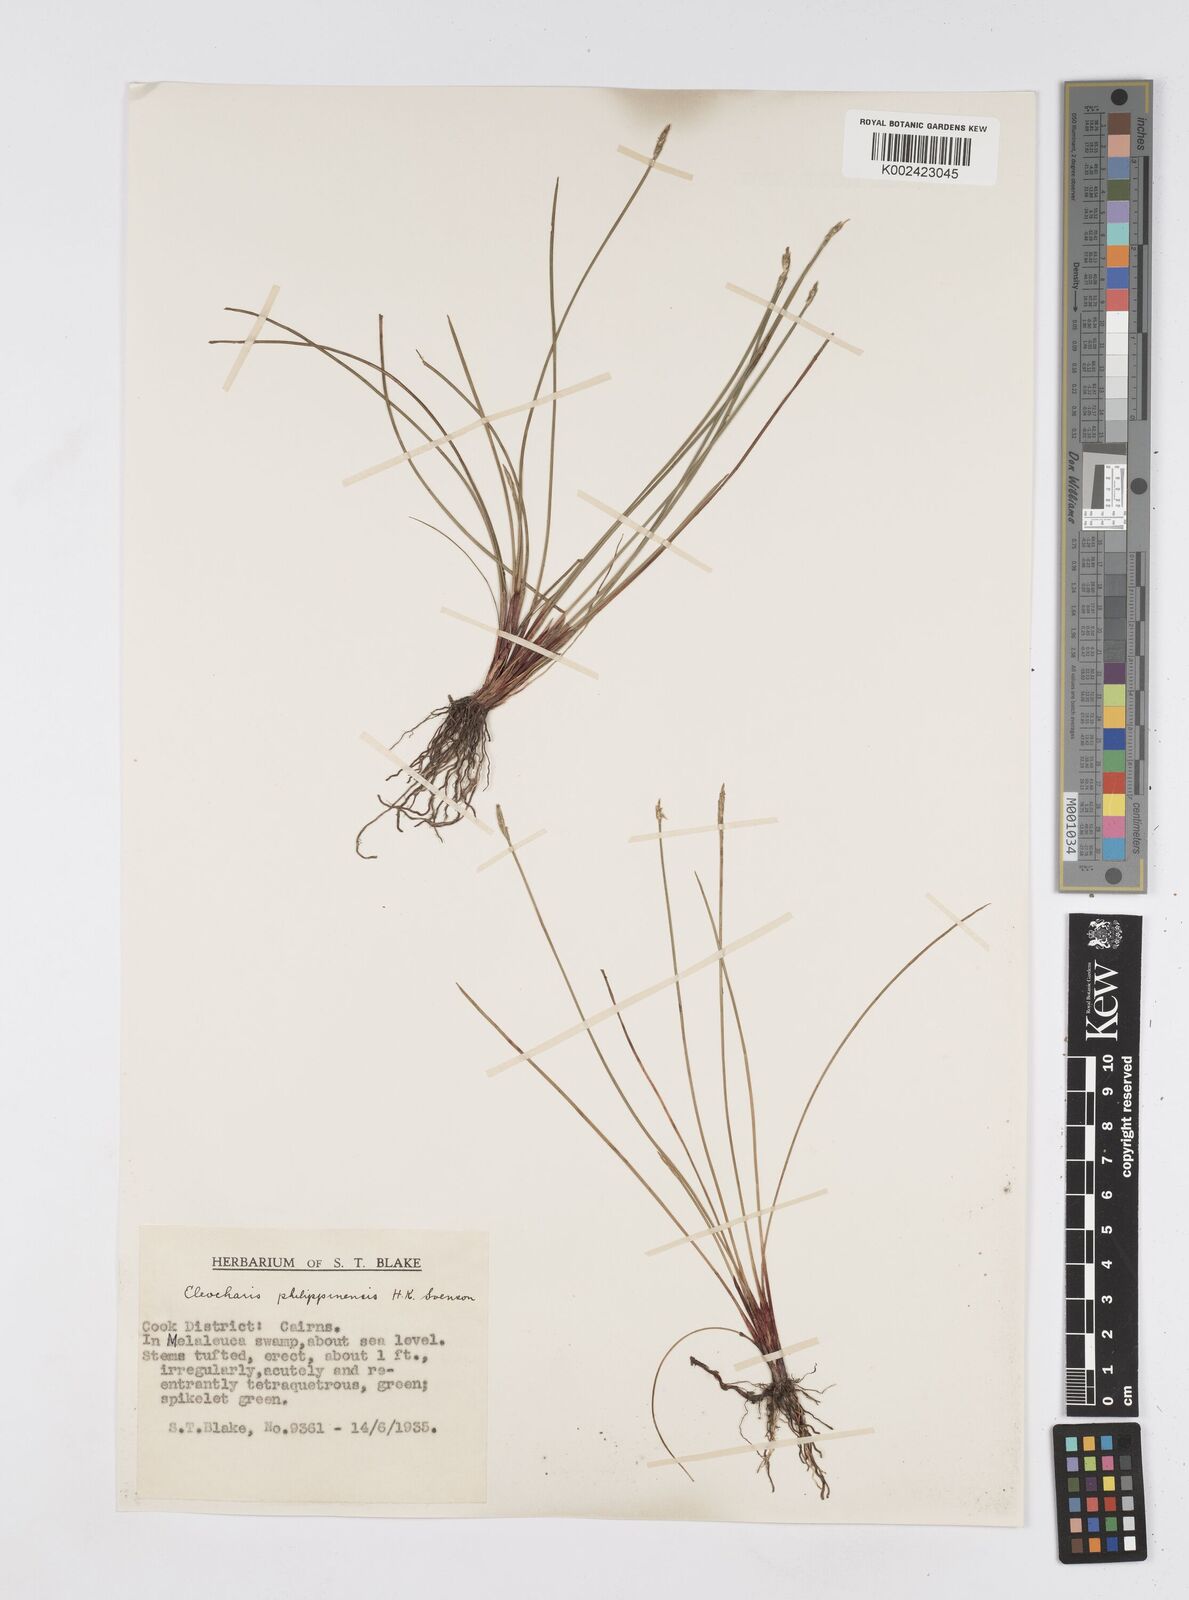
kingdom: Plantae
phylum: Tracheophyta
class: Liliopsida
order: Poales
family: Cyperaceae
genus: Eleocharis
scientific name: Eleocharis nuda
